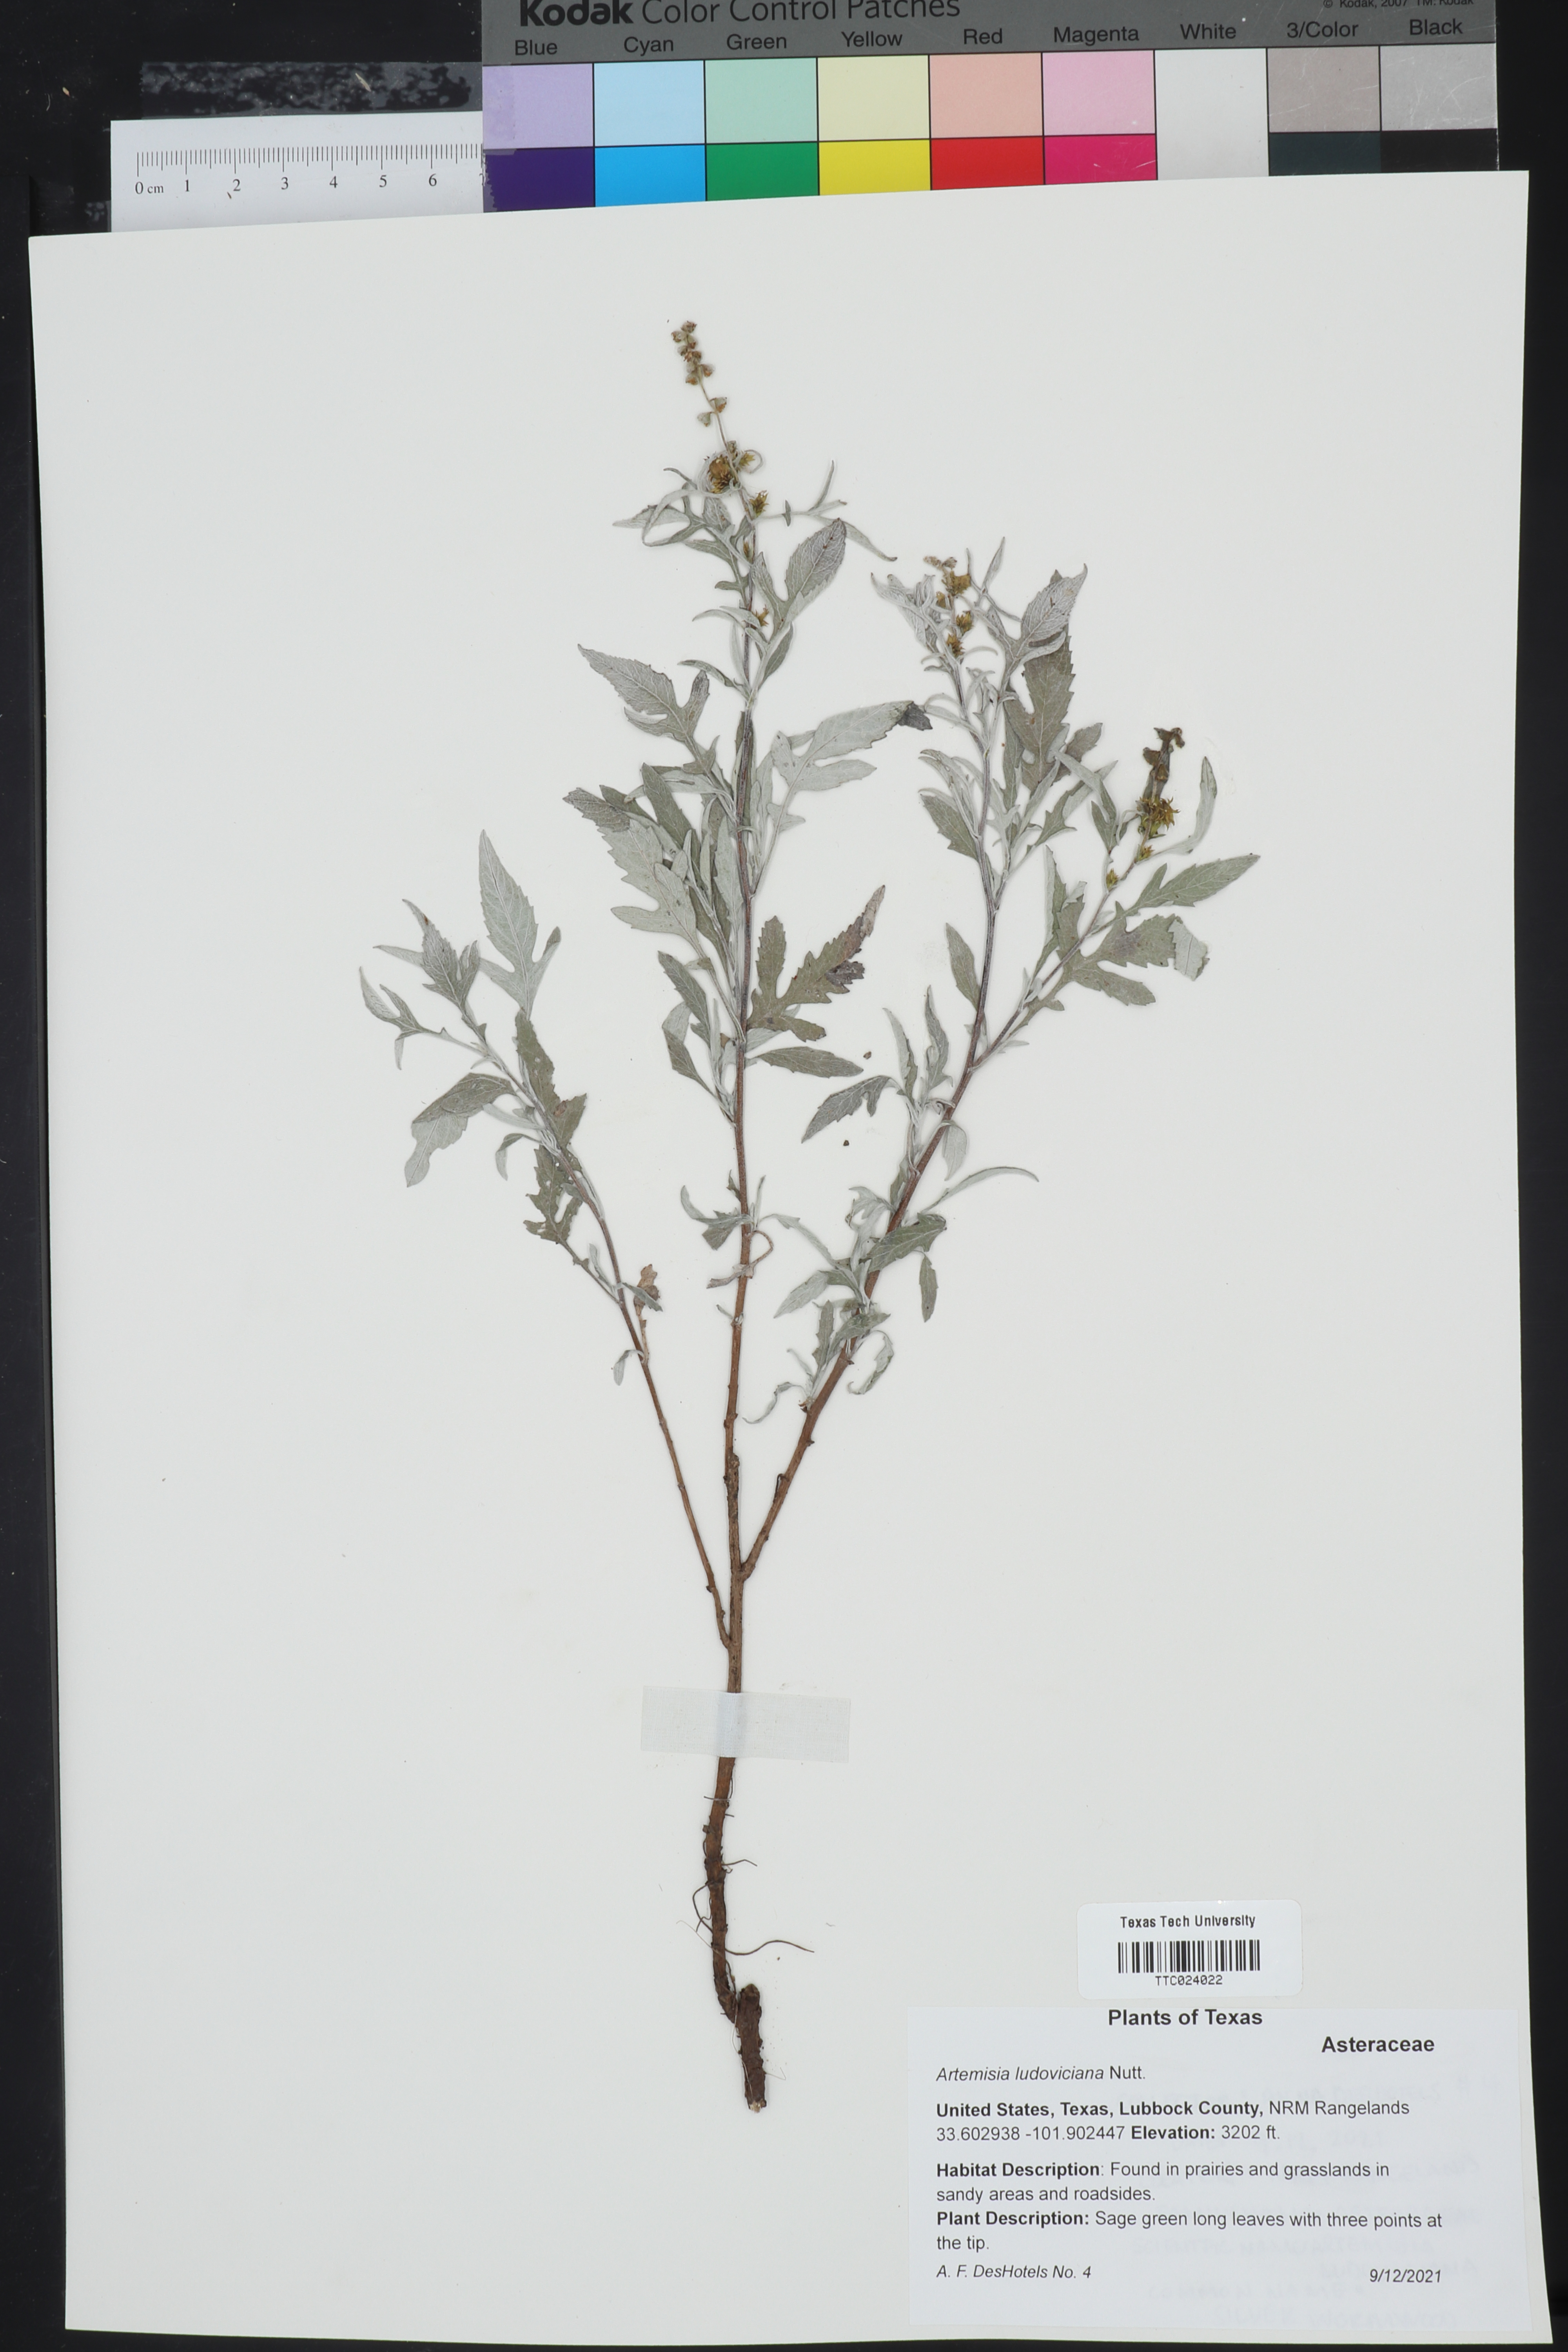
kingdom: Plantae
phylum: Tracheophyta
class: Magnoliopsida
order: Asterales
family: Asteraceae
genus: Artemisia
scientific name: Artemisia ludoviciana
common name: Western mugwort
